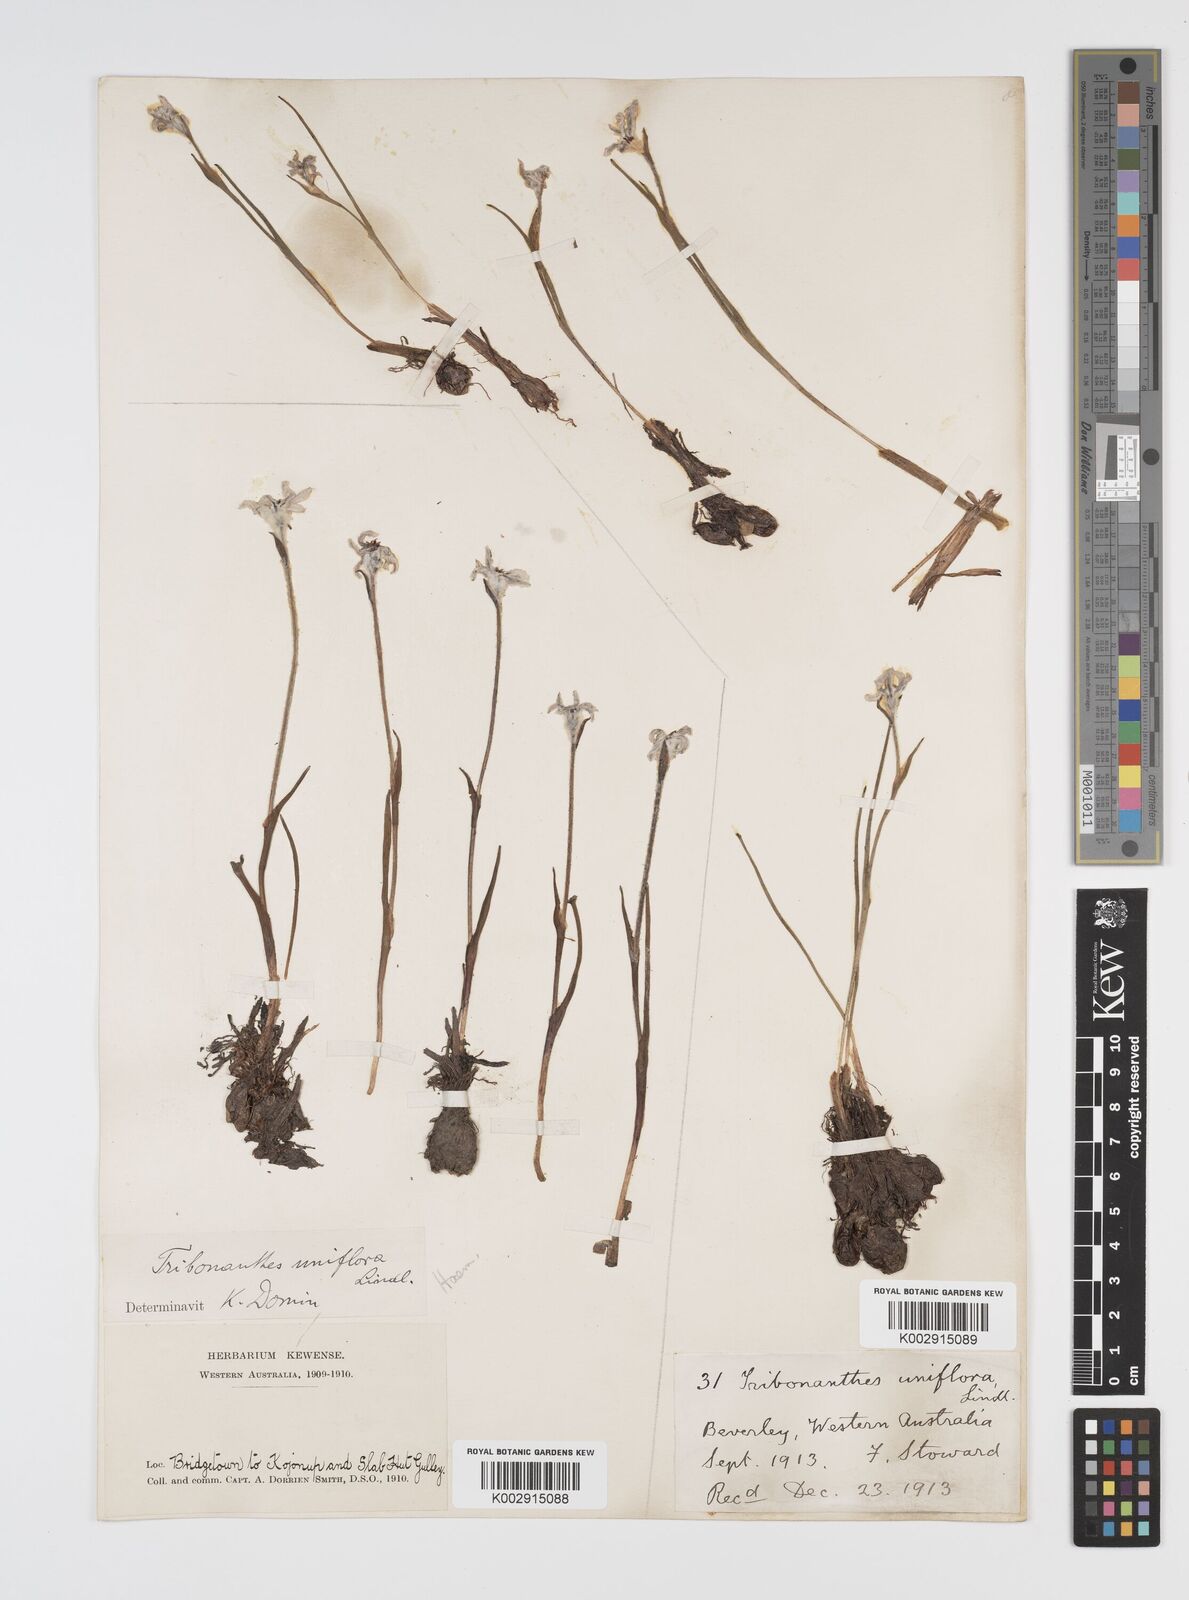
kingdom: Plantae
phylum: Tracheophyta
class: Liliopsida
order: Commelinales
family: Haemodoraceae
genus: Tribonanthes
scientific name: Tribonanthes uniflora
